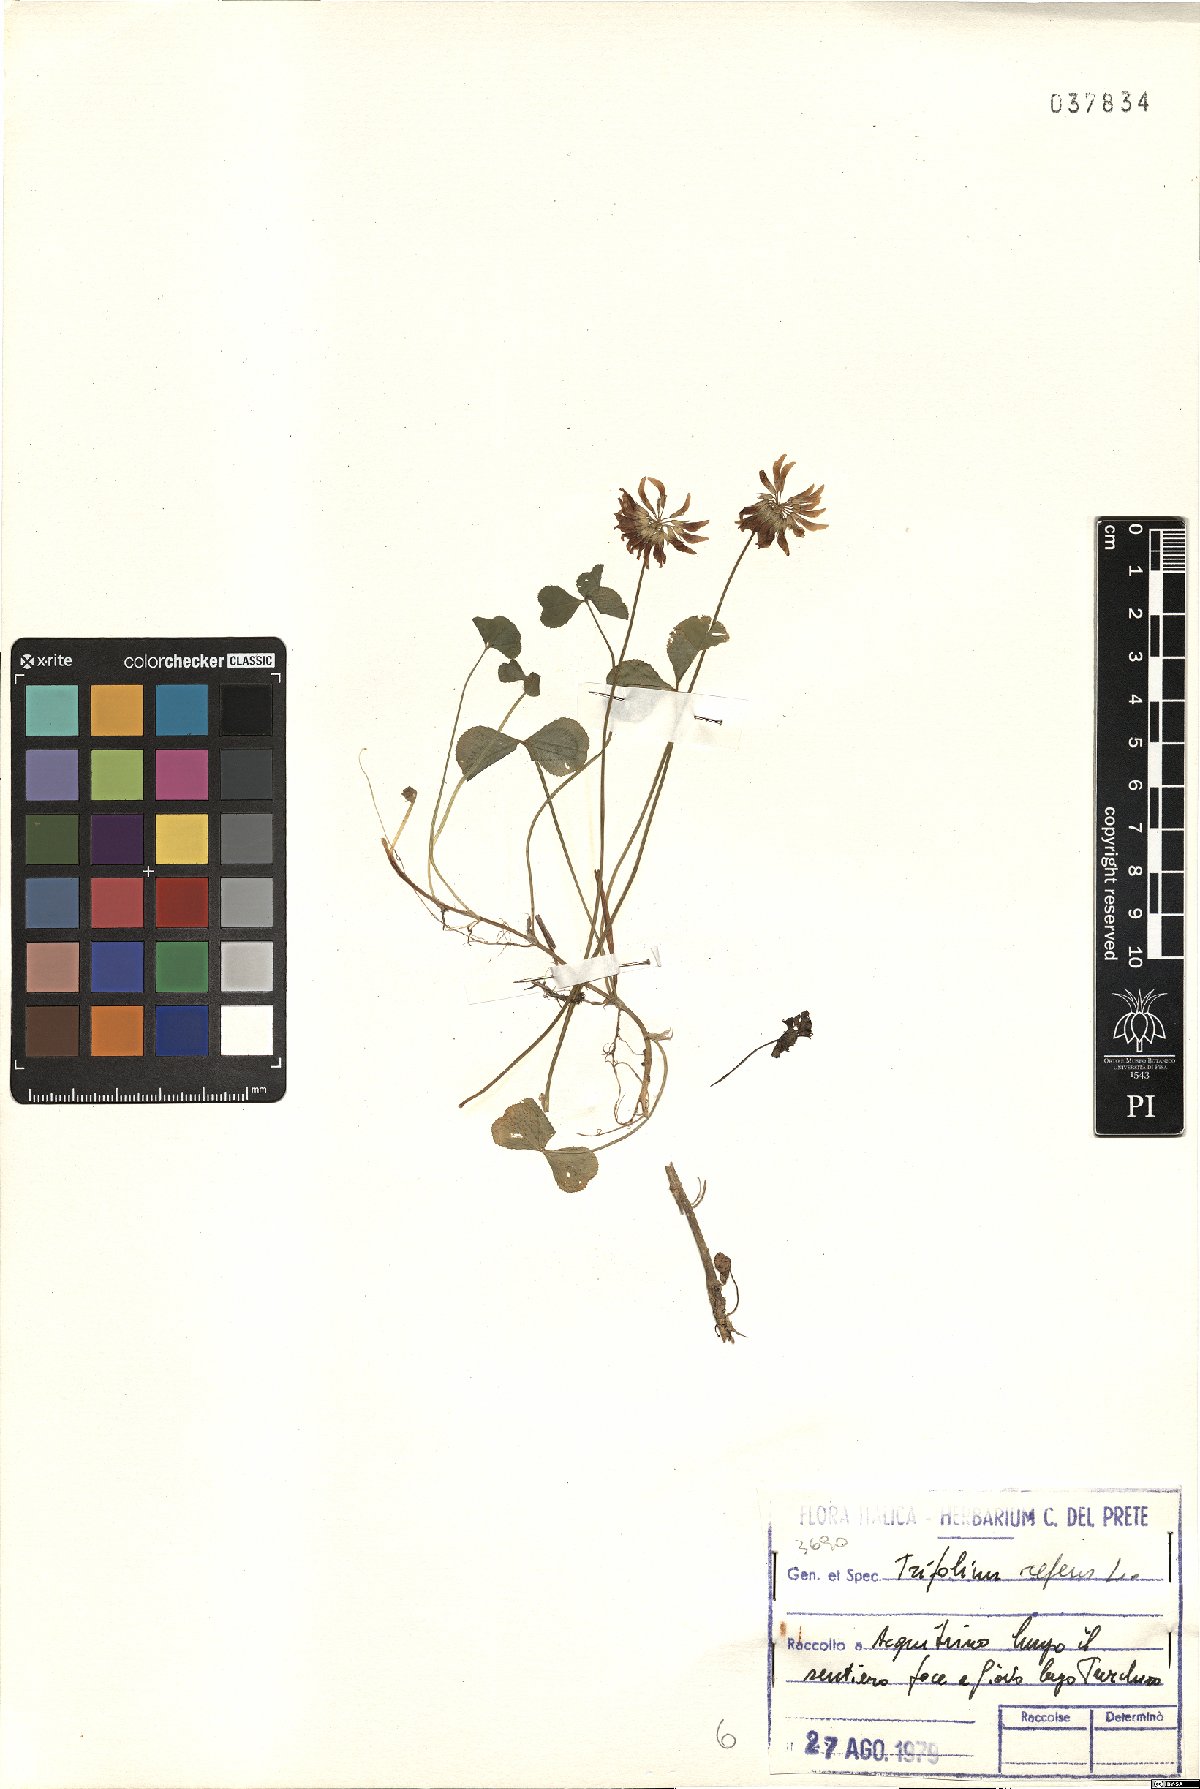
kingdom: Plantae
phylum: Tracheophyta
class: Magnoliopsida
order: Fabales
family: Fabaceae
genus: Trifolium
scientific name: Trifolium repens
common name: White clover
